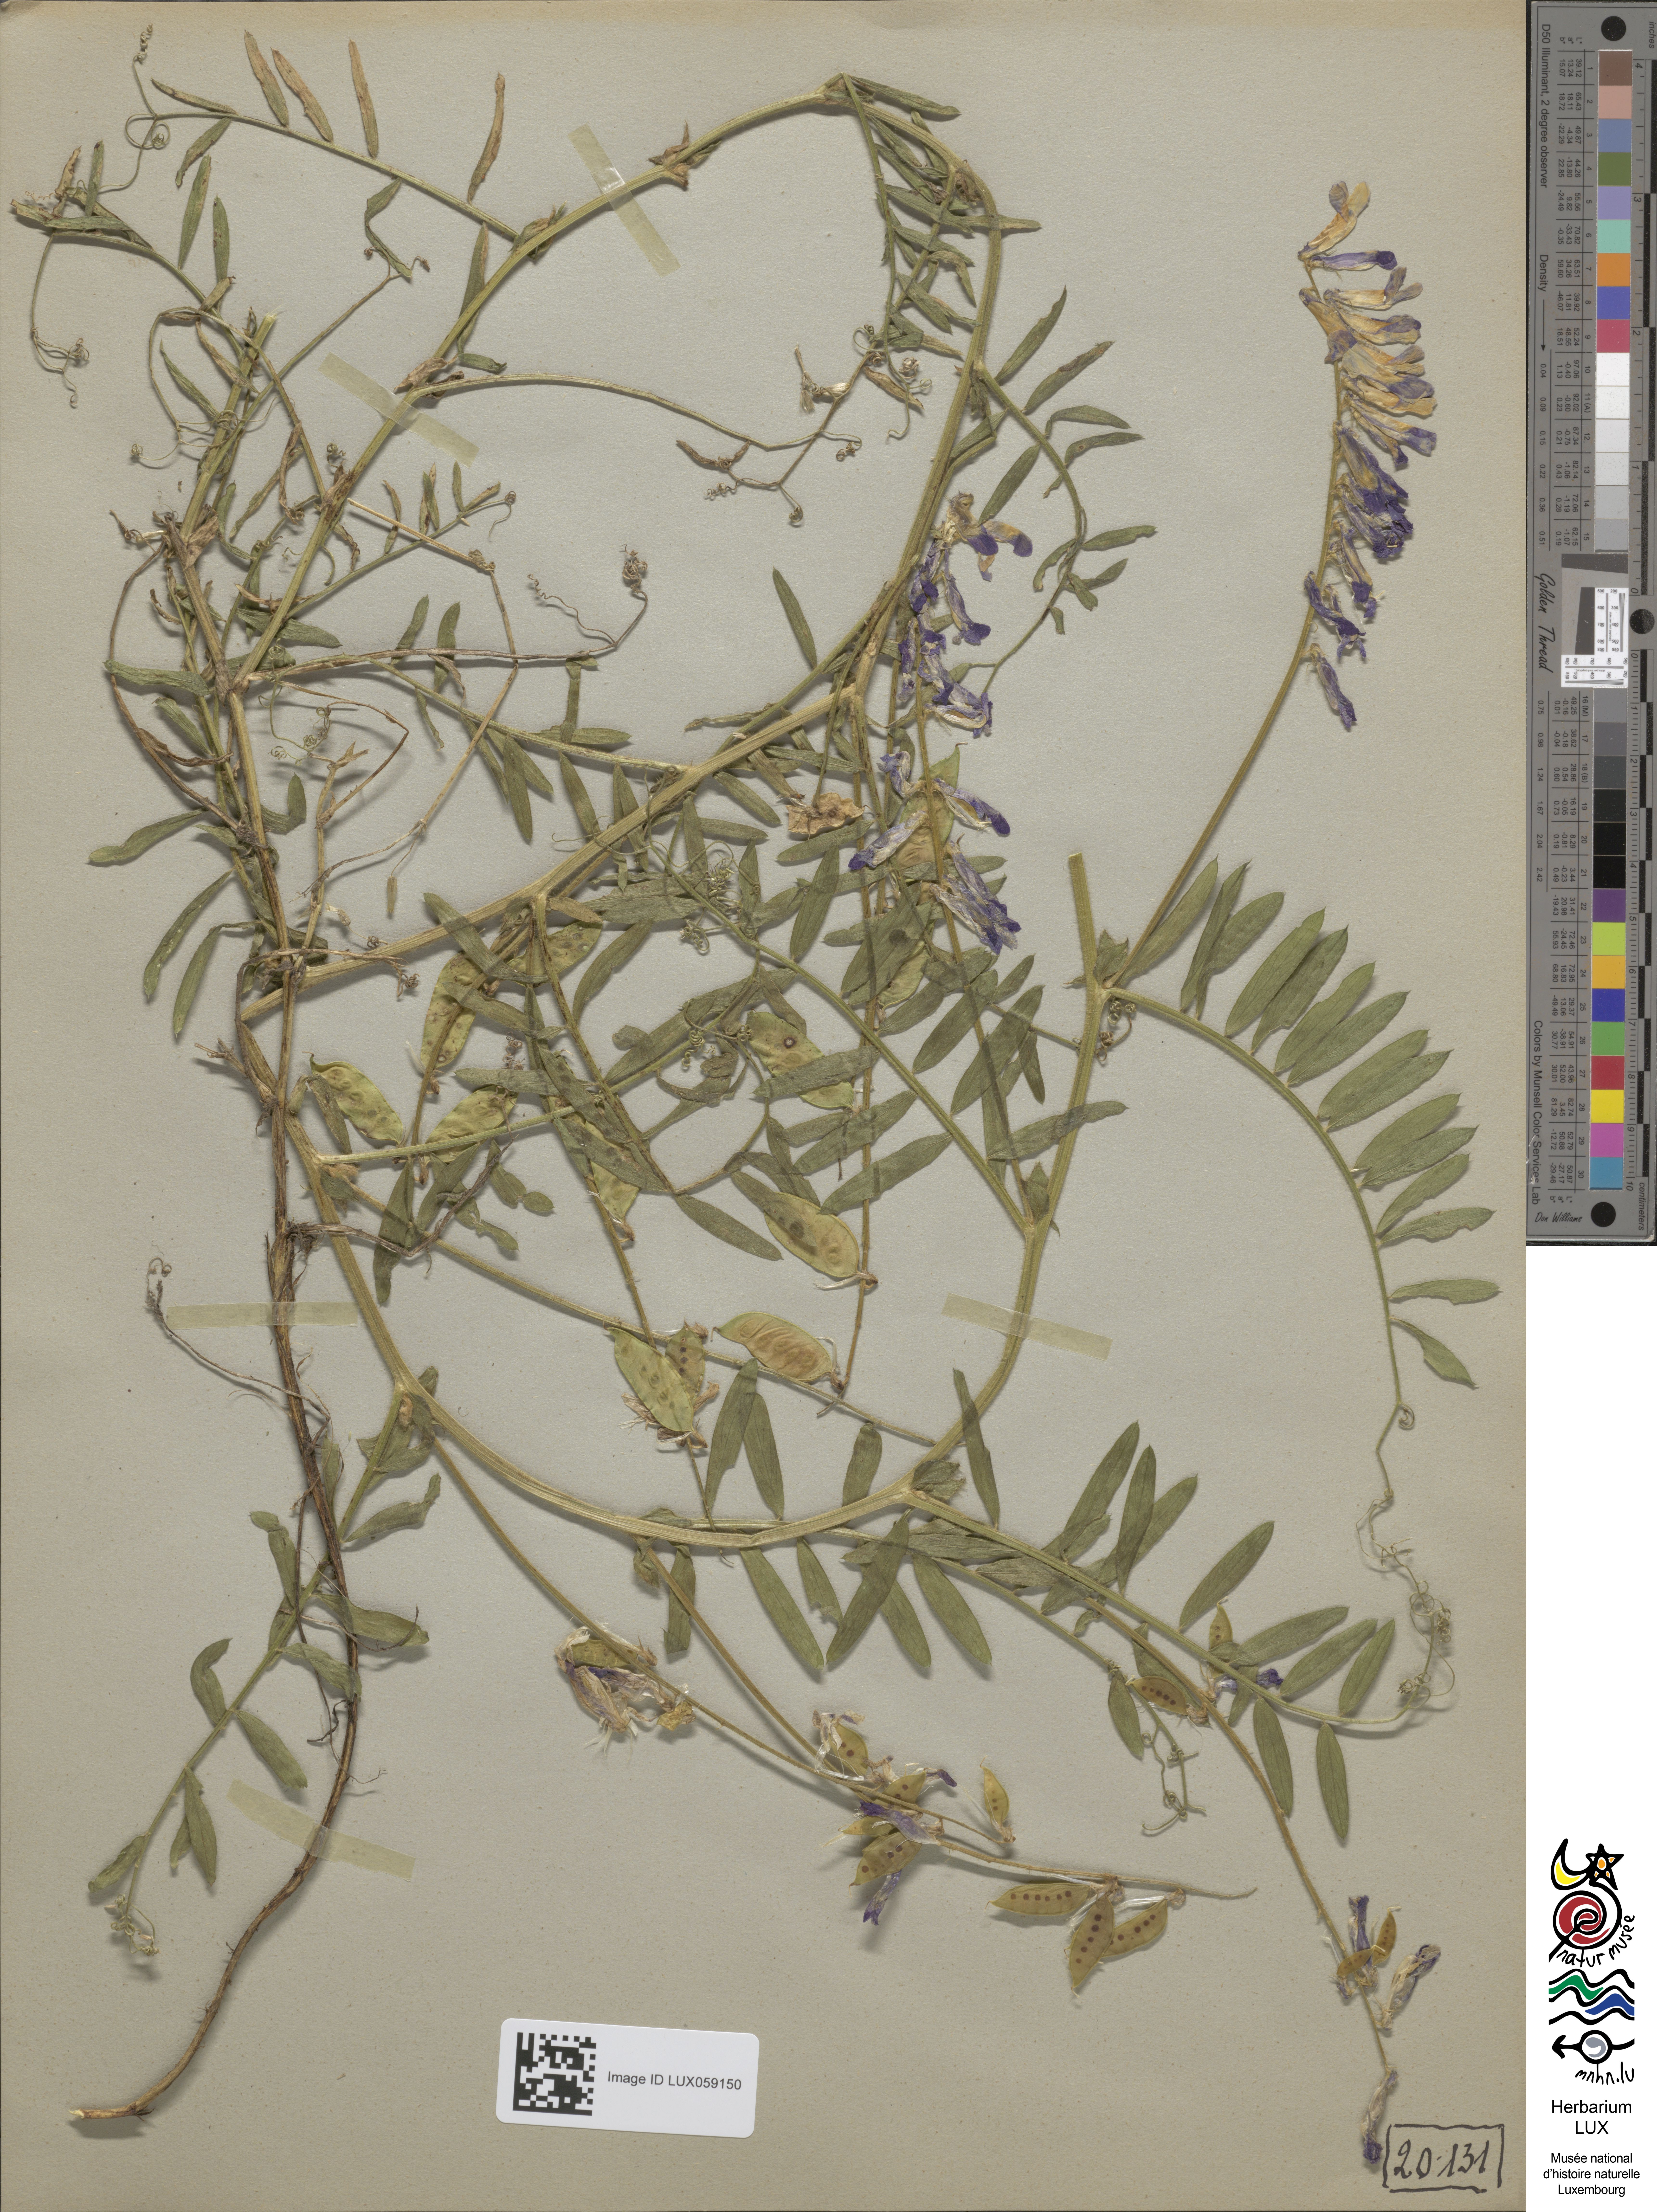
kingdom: Plantae
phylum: Tracheophyta
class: Magnoliopsida
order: Fabales
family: Fabaceae
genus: Vicia
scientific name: Vicia villosa
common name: Fodder vetch
